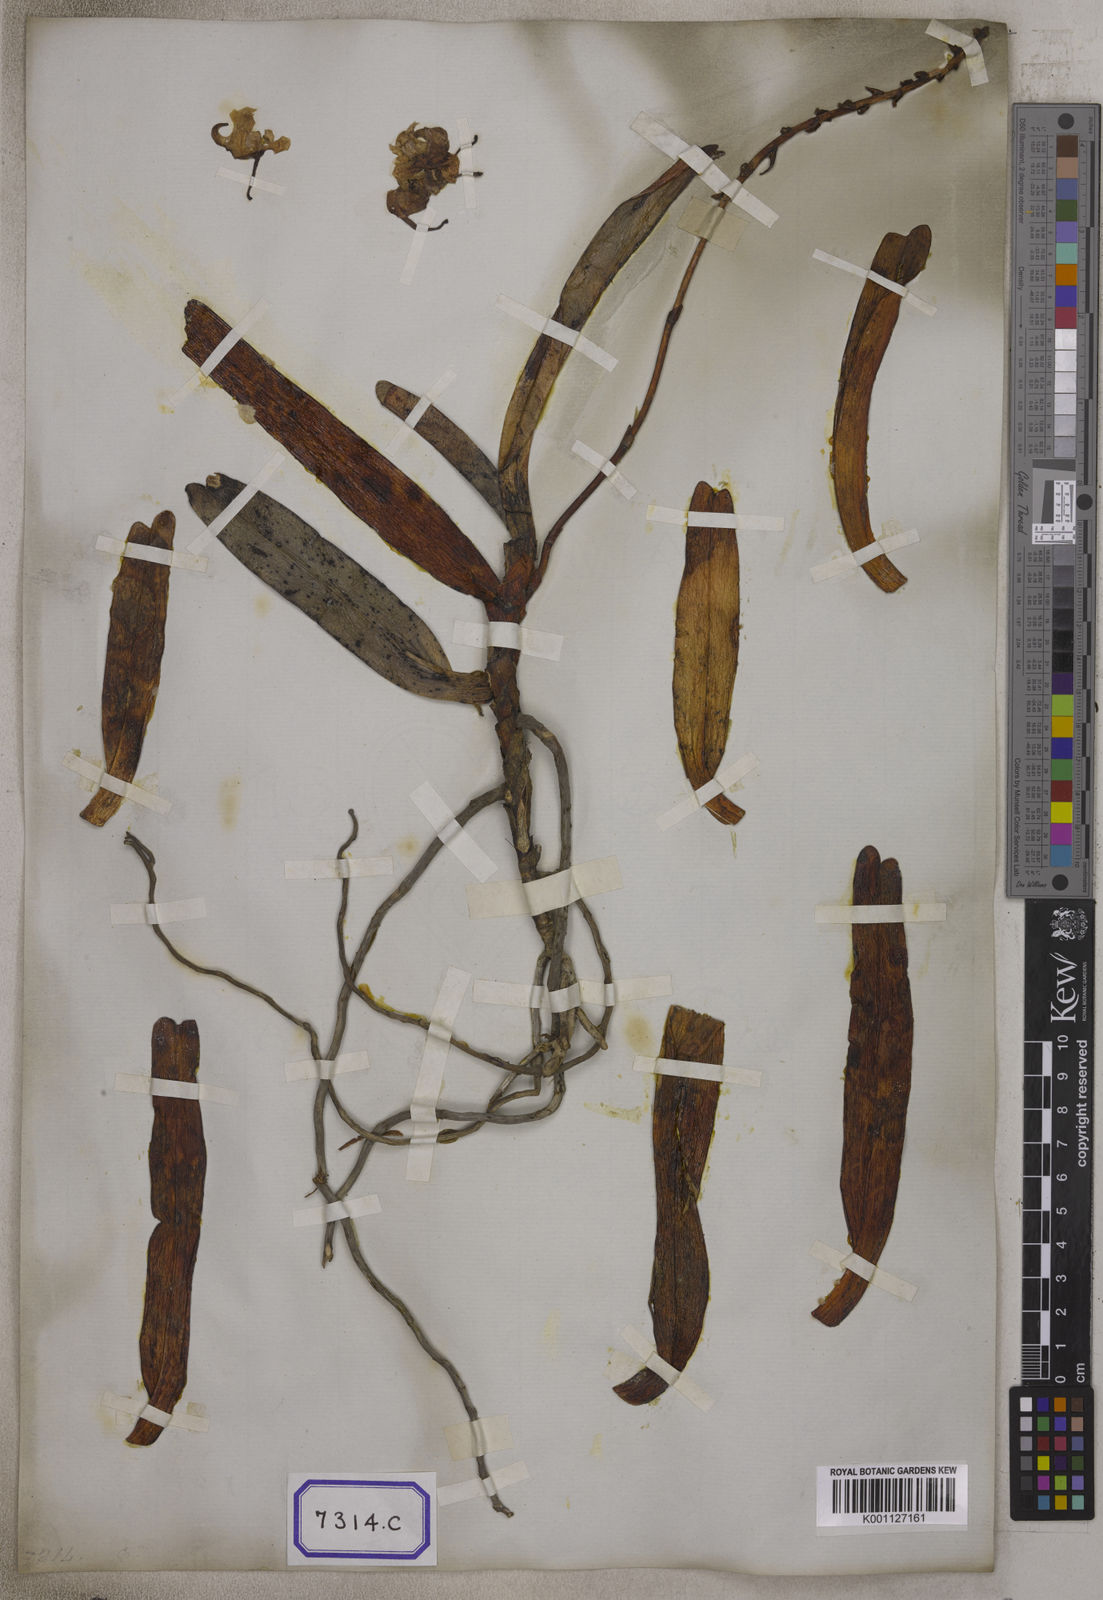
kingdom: Plantae
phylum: Tracheophyta
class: Liliopsida
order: Asparagales
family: Orchidaceae
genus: Aerides
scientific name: Aerides odorata
